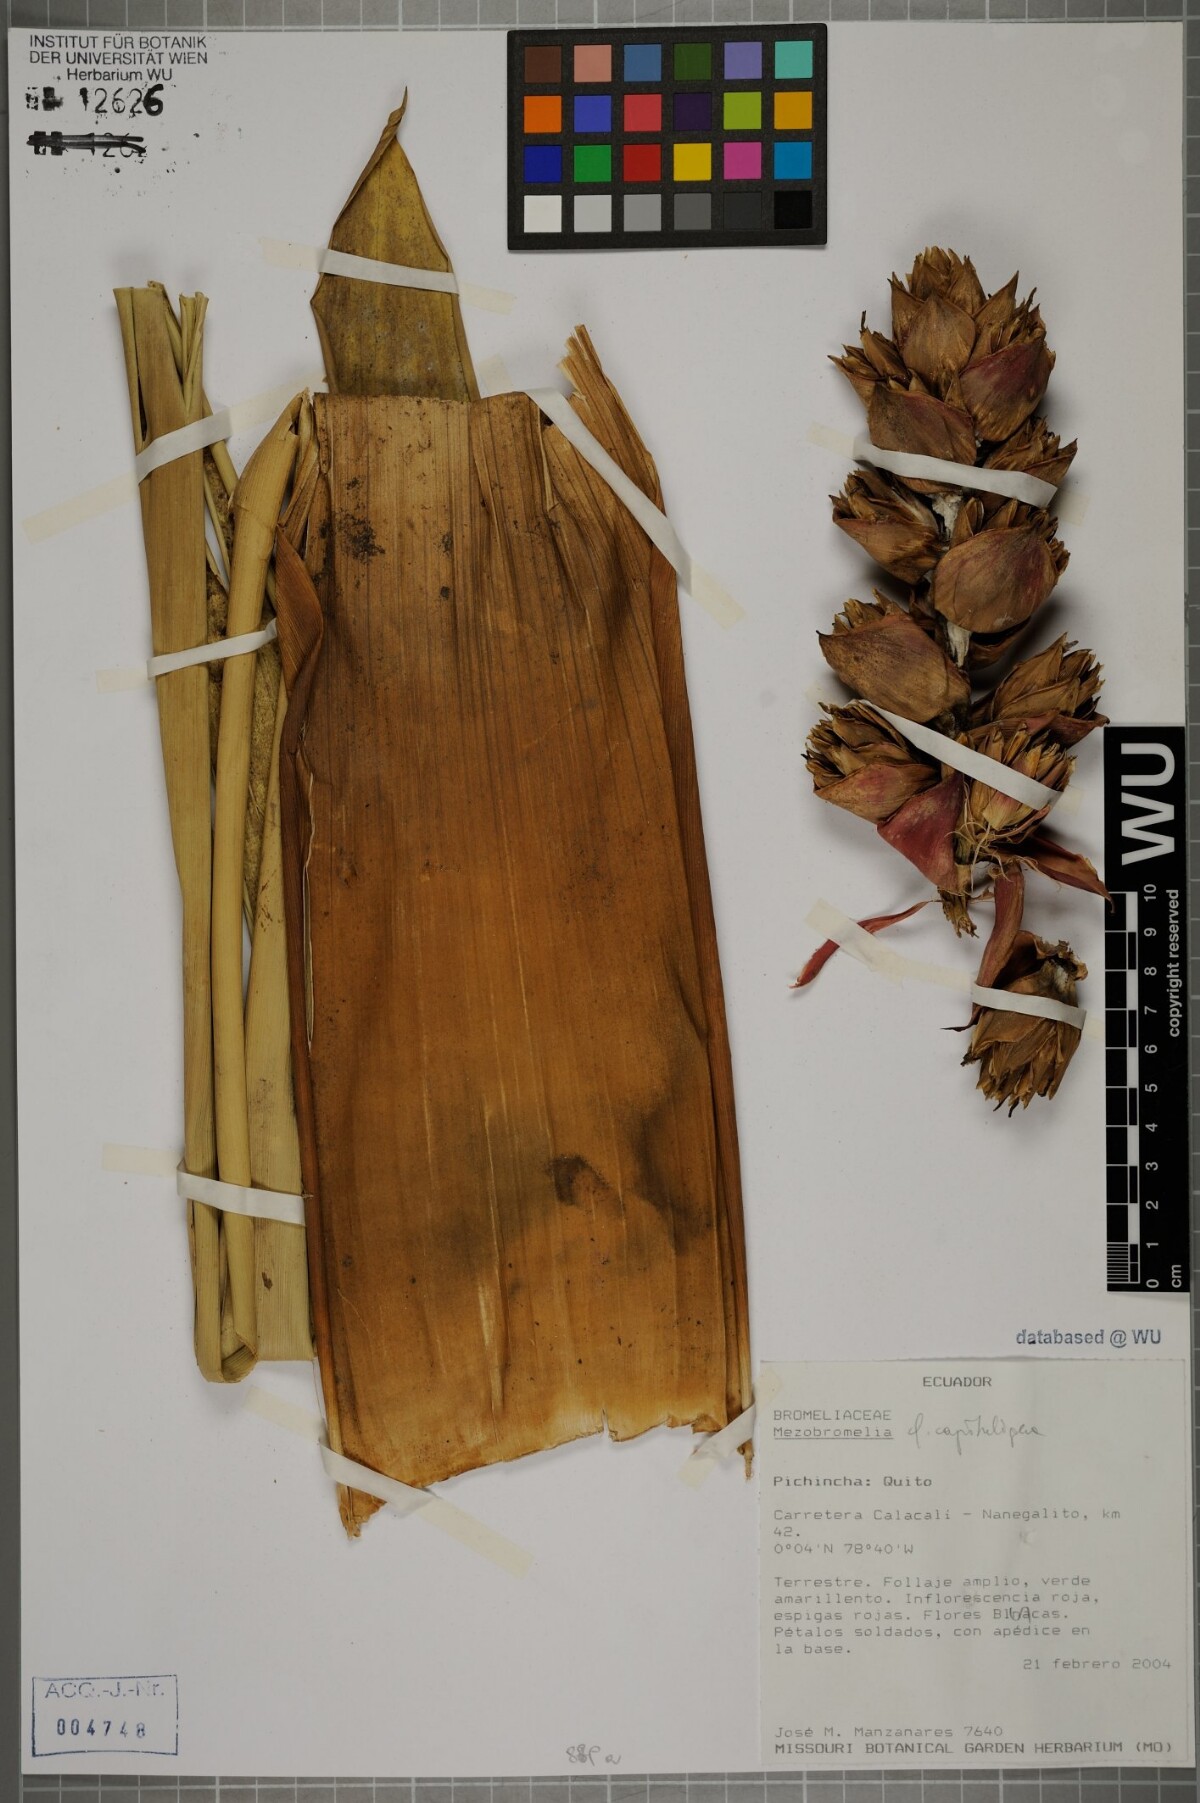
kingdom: Plantae
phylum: Tracheophyta
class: Liliopsida
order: Poales
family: Bromeliaceae
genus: Cipuropsis
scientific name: Cipuropsis capituligera
